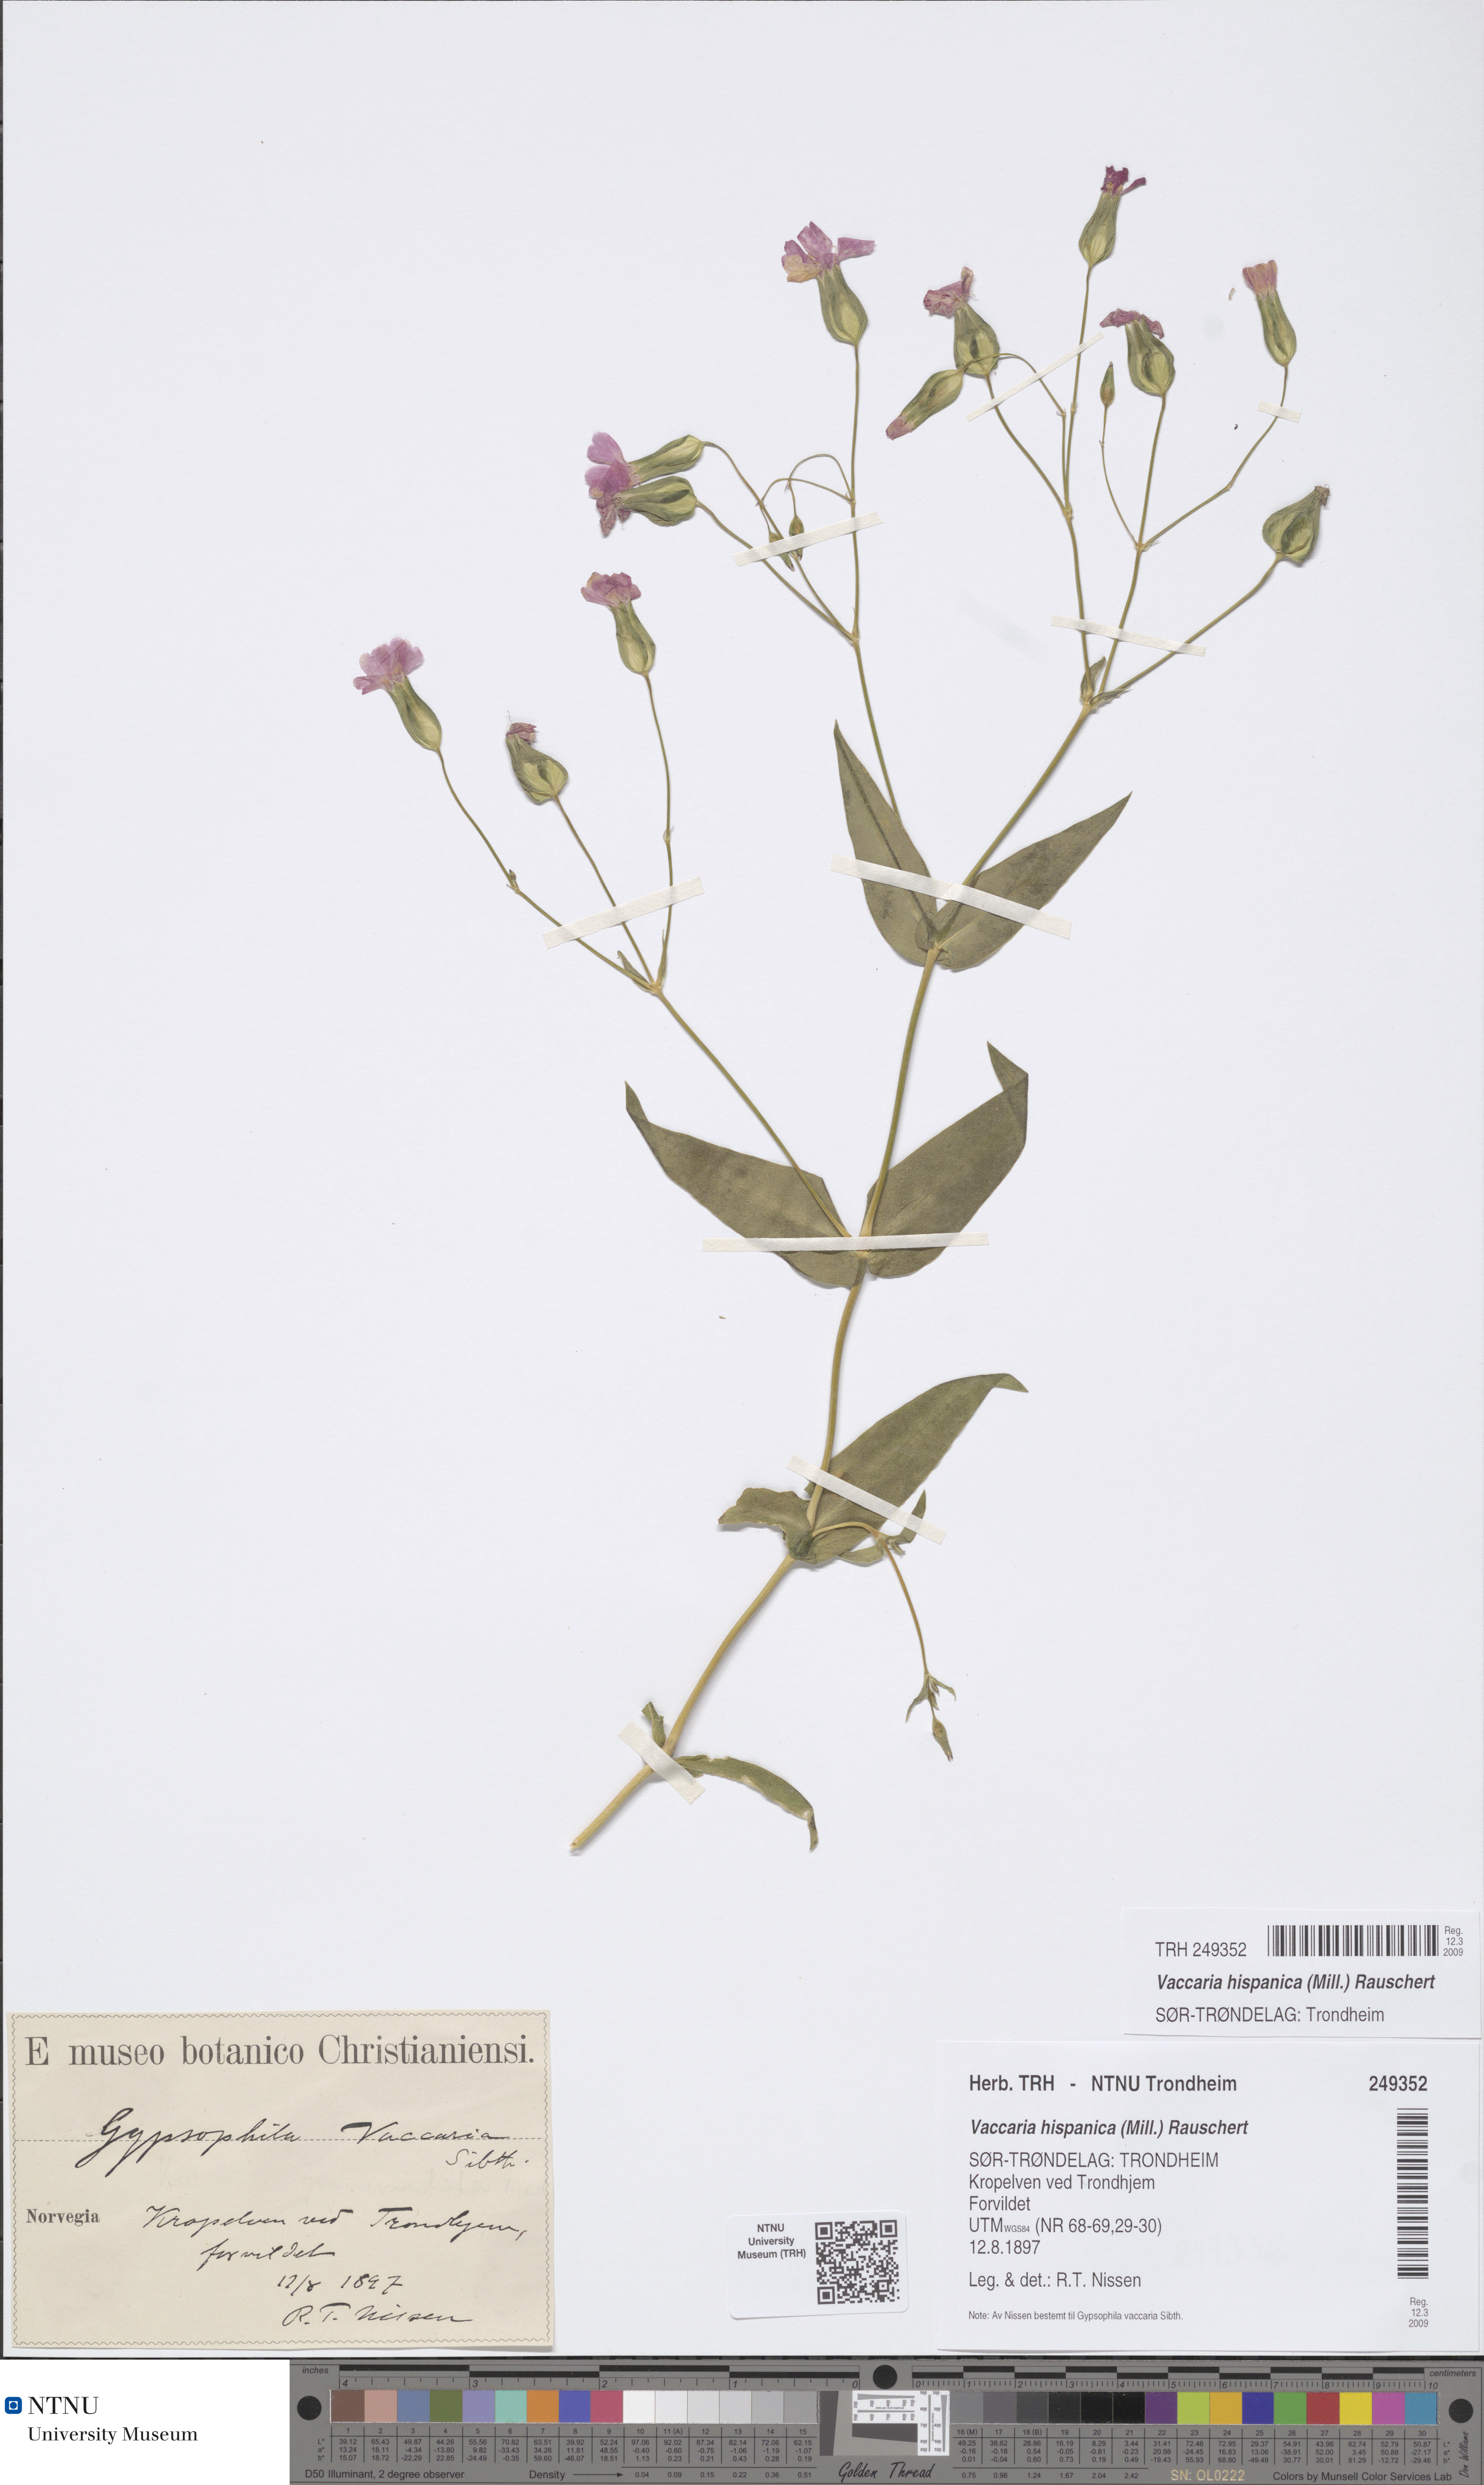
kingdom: Plantae
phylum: Tracheophyta
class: Magnoliopsida
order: Caryophyllales
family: Caryophyllaceae
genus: Gypsophila
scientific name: Gypsophila vaccaria
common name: Cow soapwort
